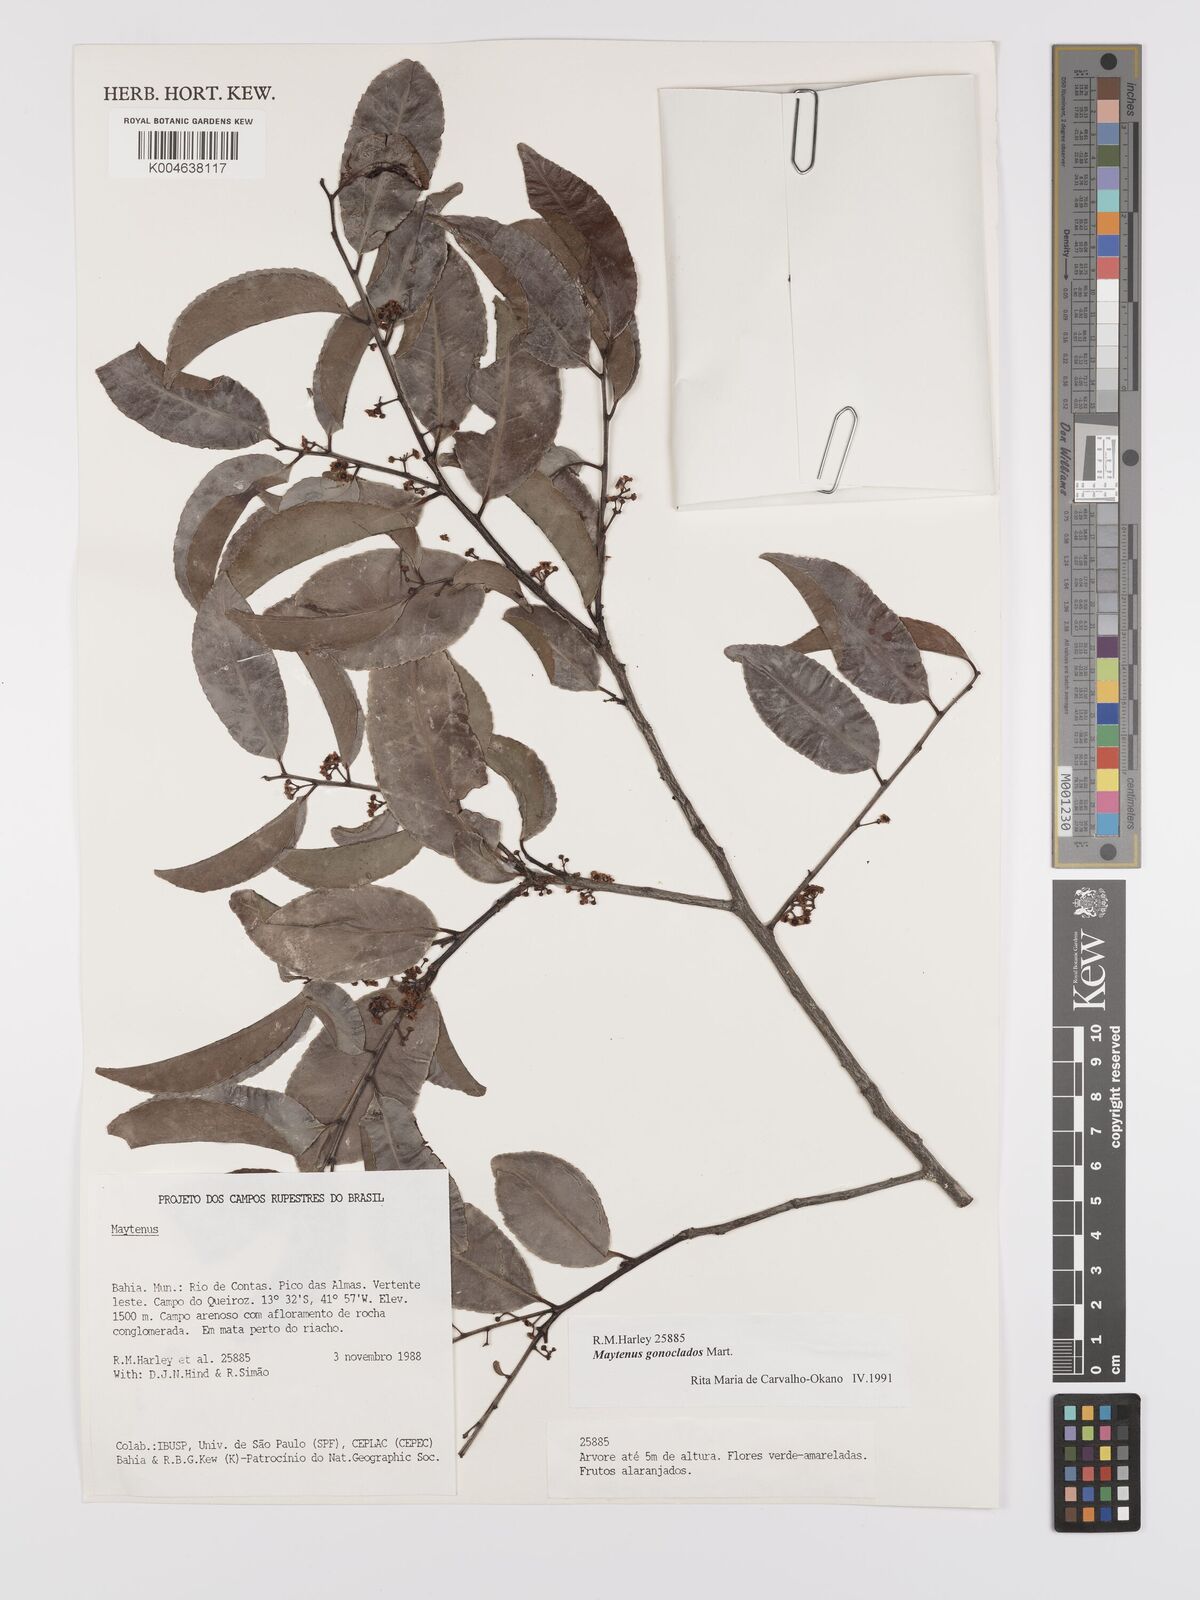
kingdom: Plantae
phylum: Tracheophyta
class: Magnoliopsida
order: Celastrales
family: Celastraceae
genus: Monteverdia
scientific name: Monteverdia gonoclada
